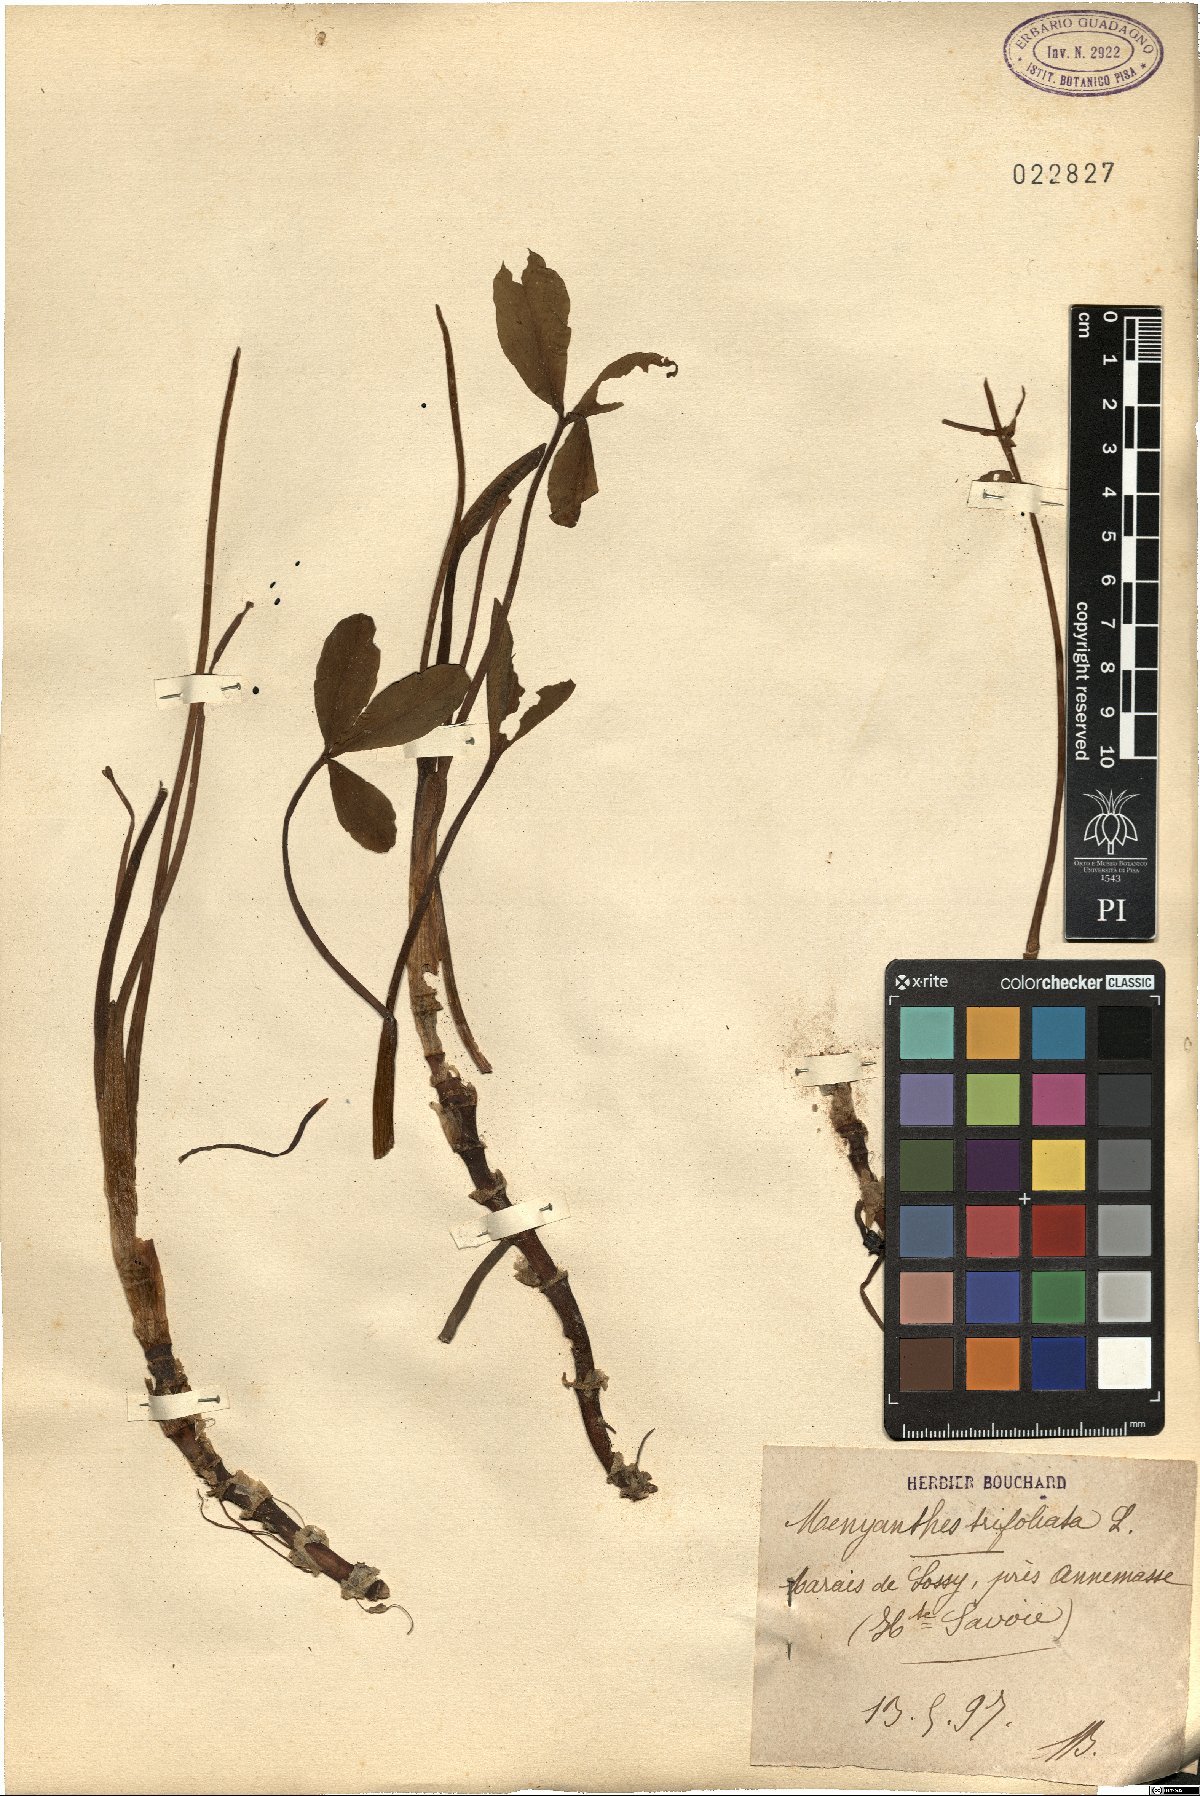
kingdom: Plantae
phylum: Tracheophyta
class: Magnoliopsida
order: Asterales
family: Menyanthaceae
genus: Menyanthes
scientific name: Menyanthes trifoliata
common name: Bogbean
